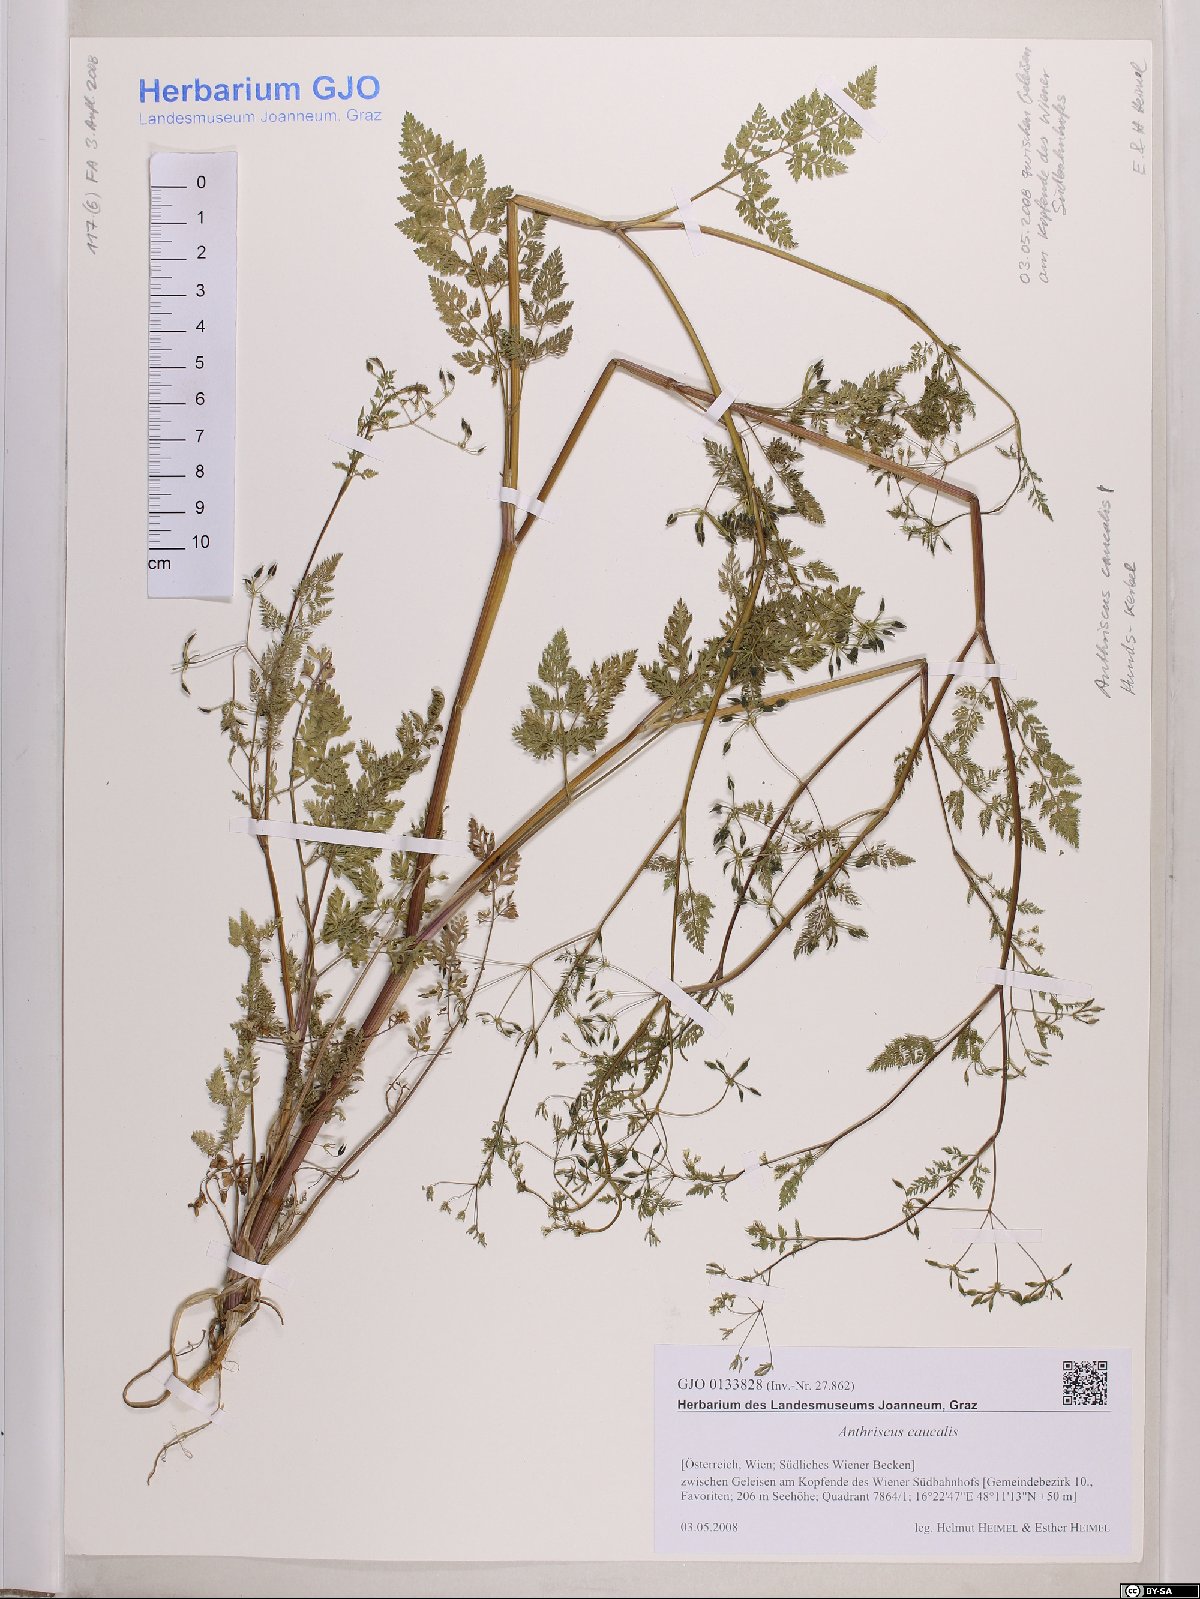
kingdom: Plantae
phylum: Tracheophyta
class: Magnoliopsida
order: Apiales
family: Apiaceae
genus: Anthriscus
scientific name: Anthriscus caucalis
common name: Bur chervil
